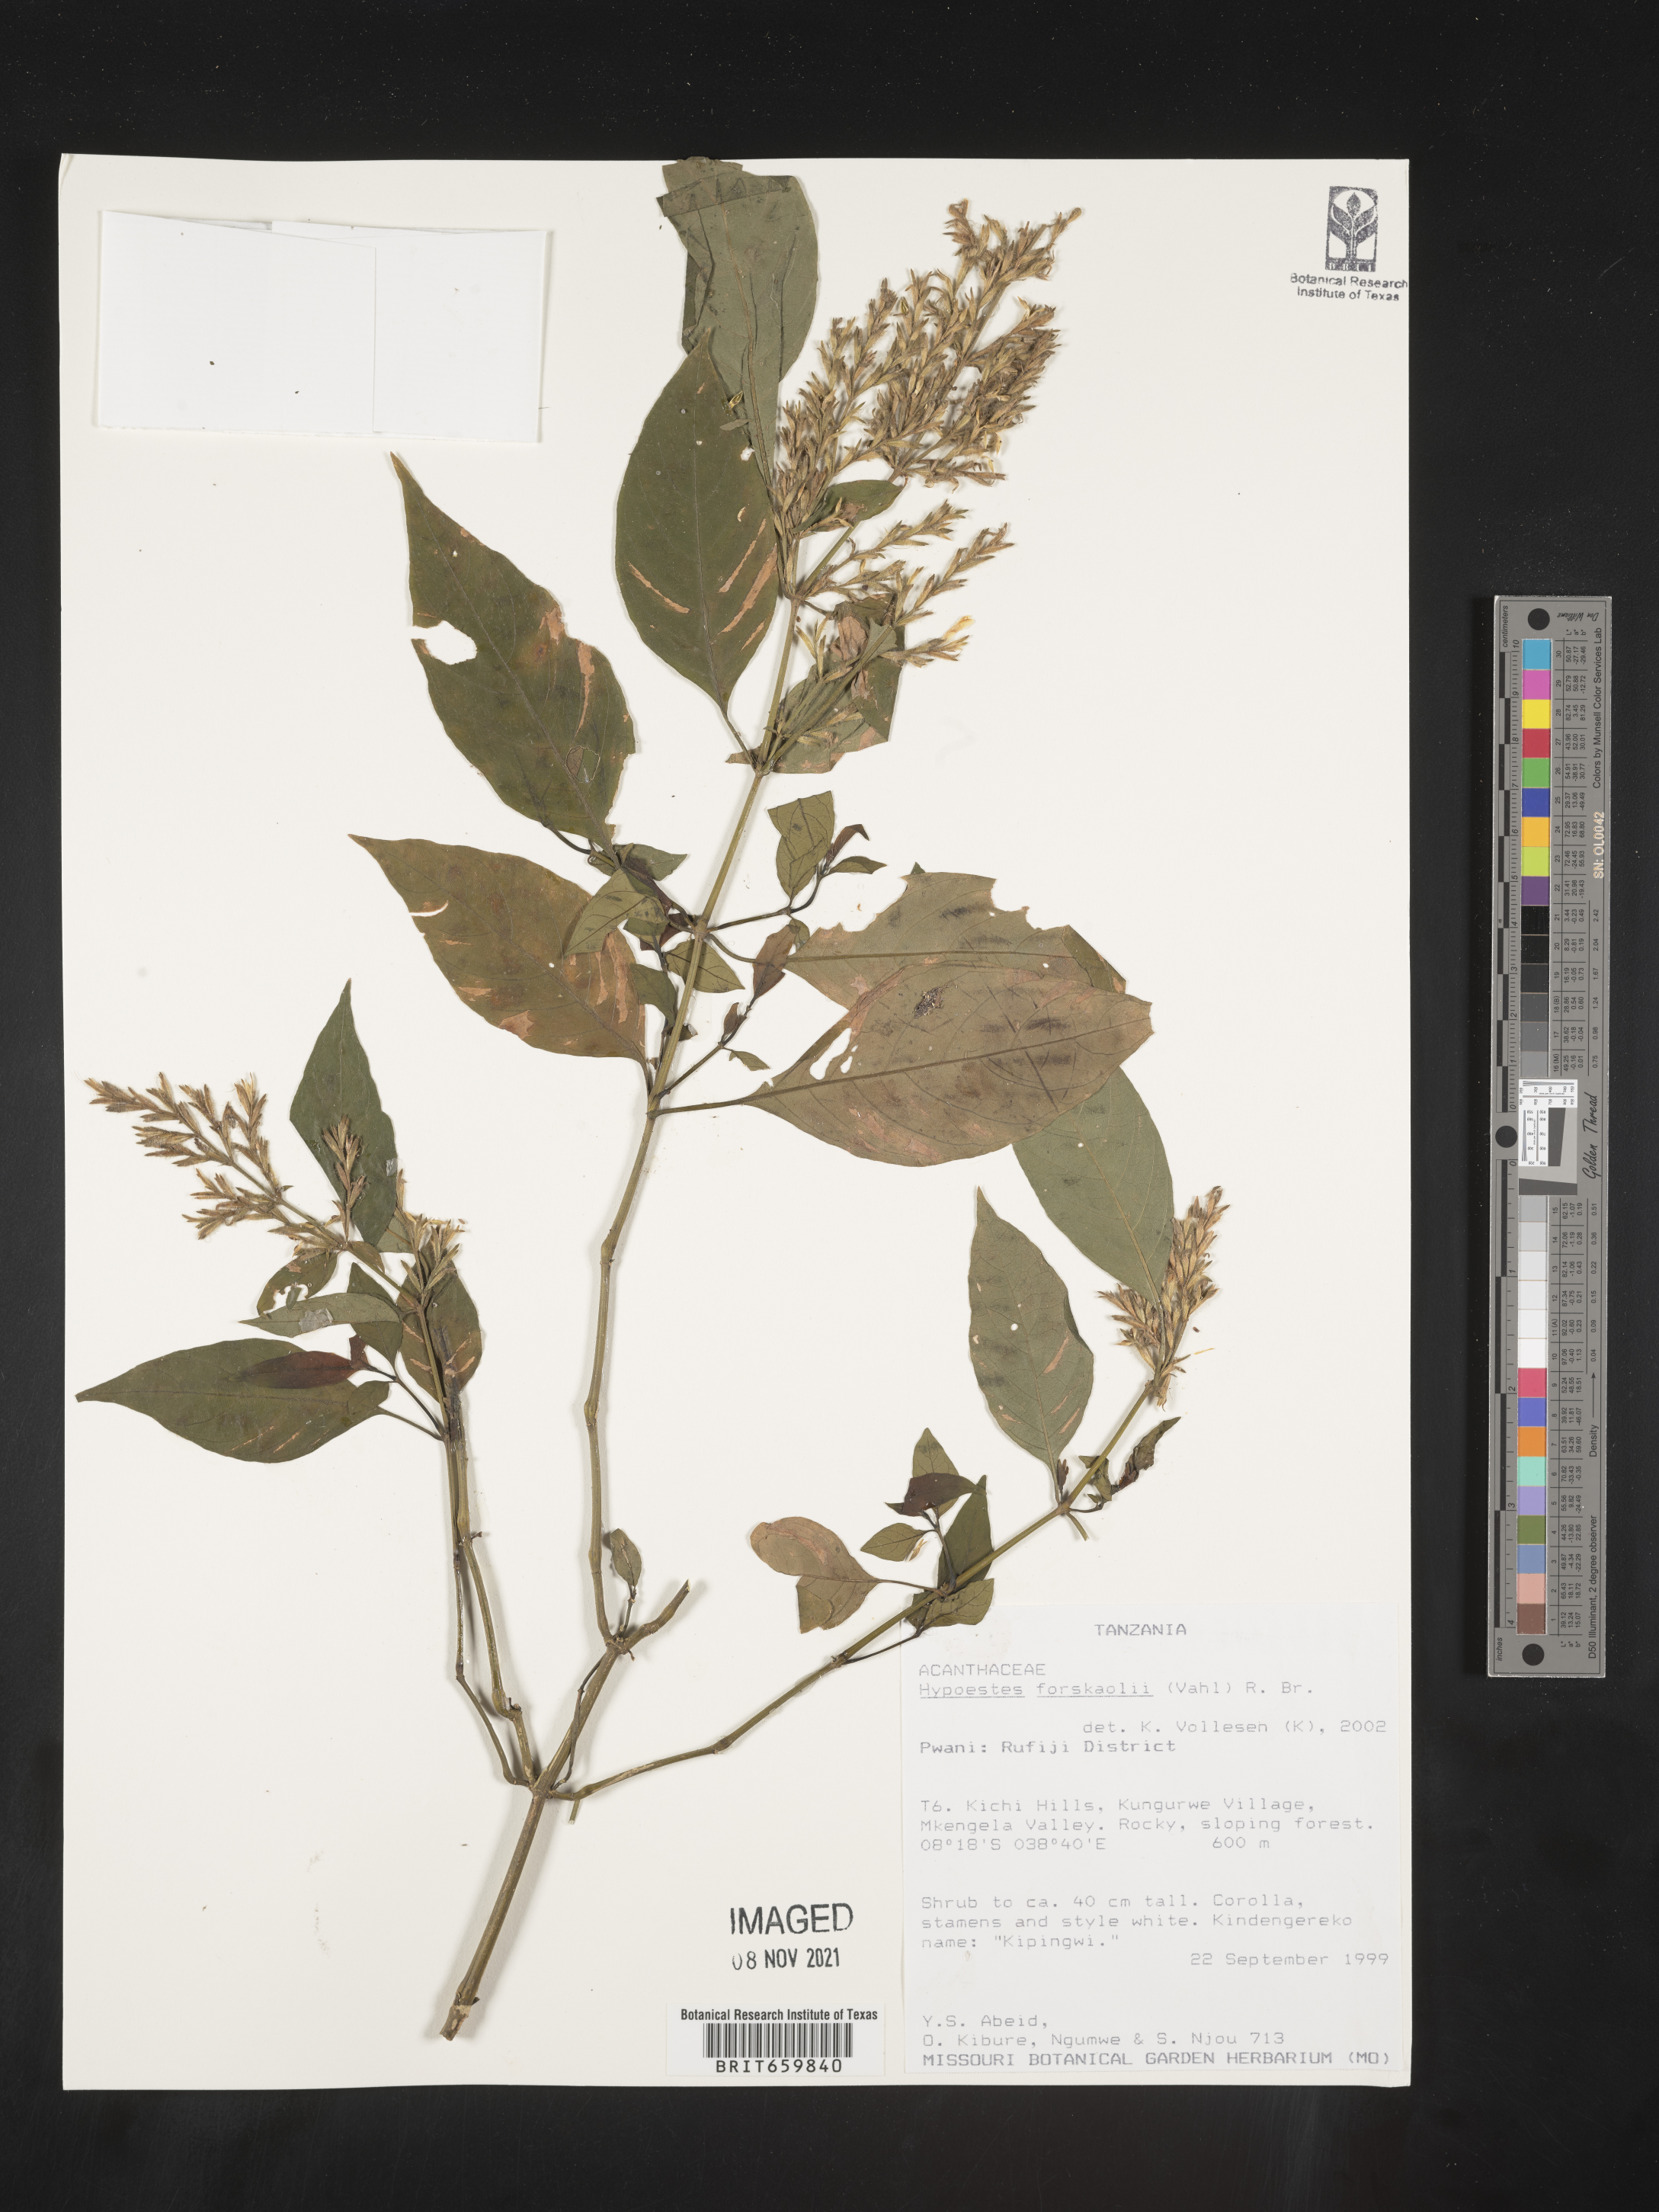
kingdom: Plantae
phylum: Tracheophyta
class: Magnoliopsida
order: Lamiales
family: Acanthaceae
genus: Hypoestes
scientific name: Hypoestes forskaolii
